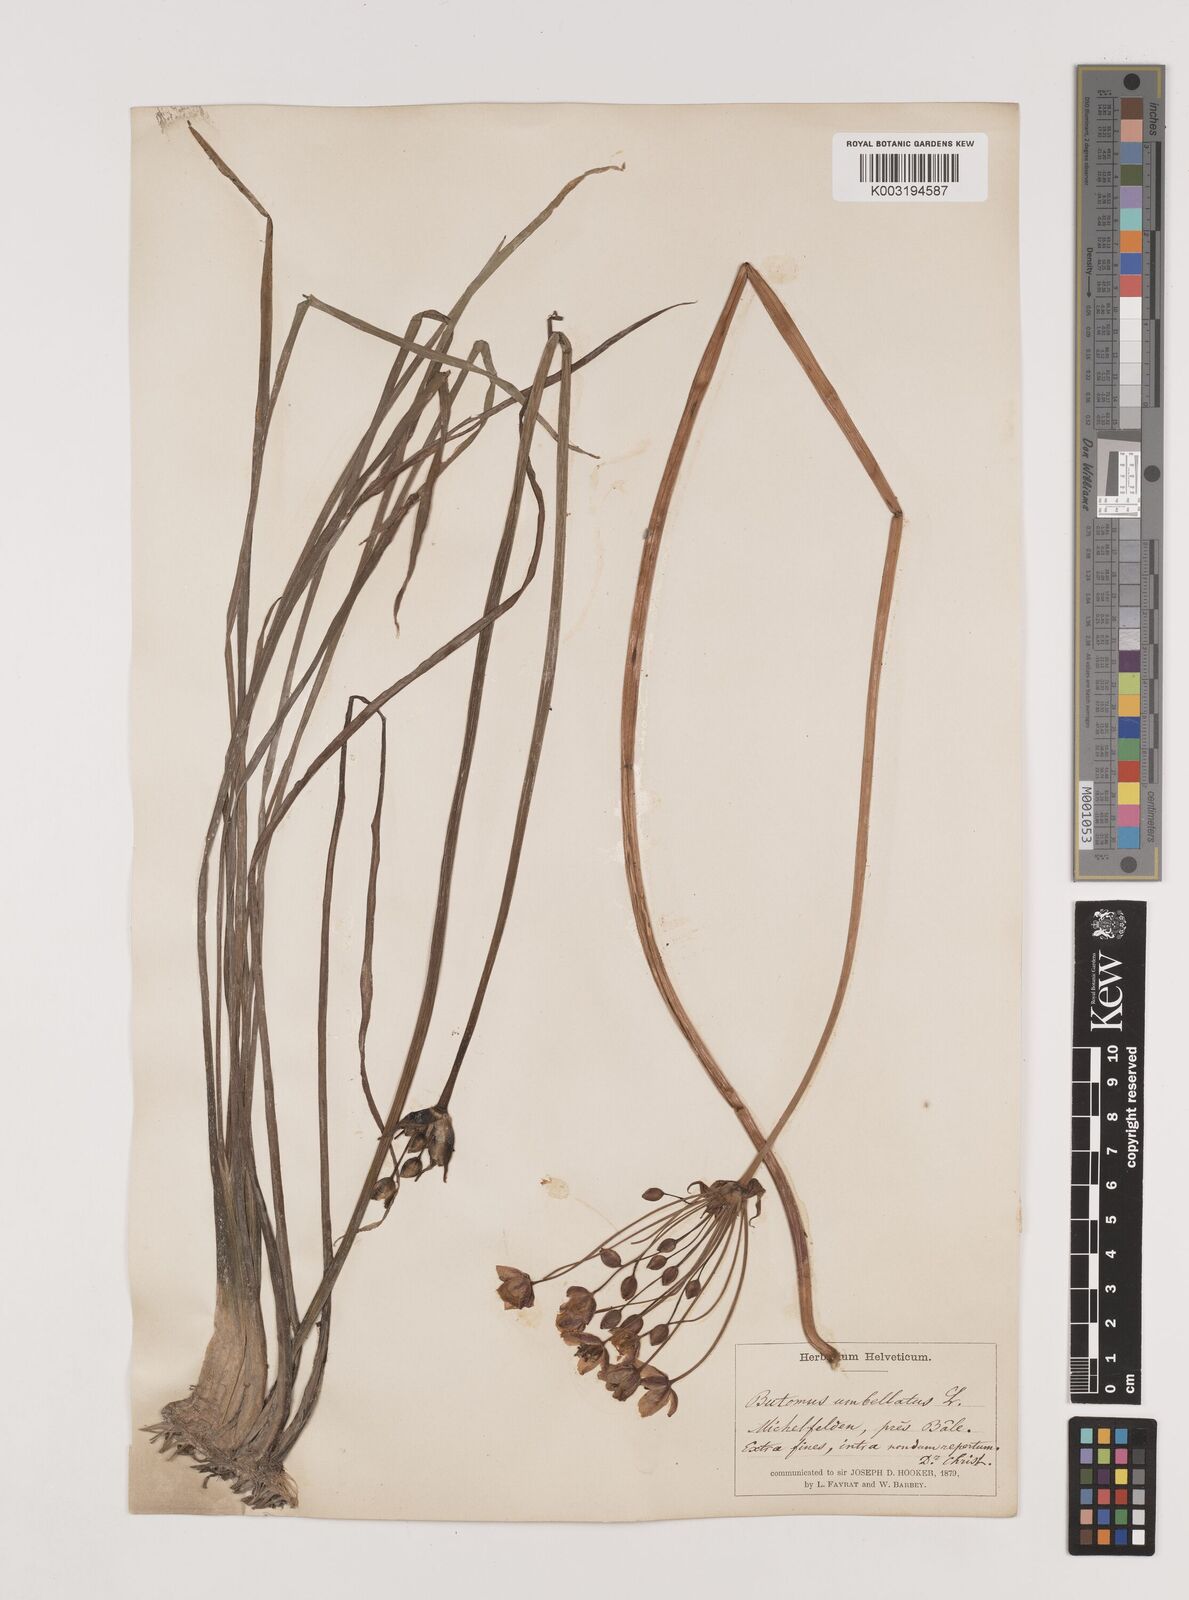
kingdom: Plantae
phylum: Tracheophyta
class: Liliopsida
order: Alismatales
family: Butomaceae
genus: Butomus
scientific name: Butomus umbellatus
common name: Flowering-rush
